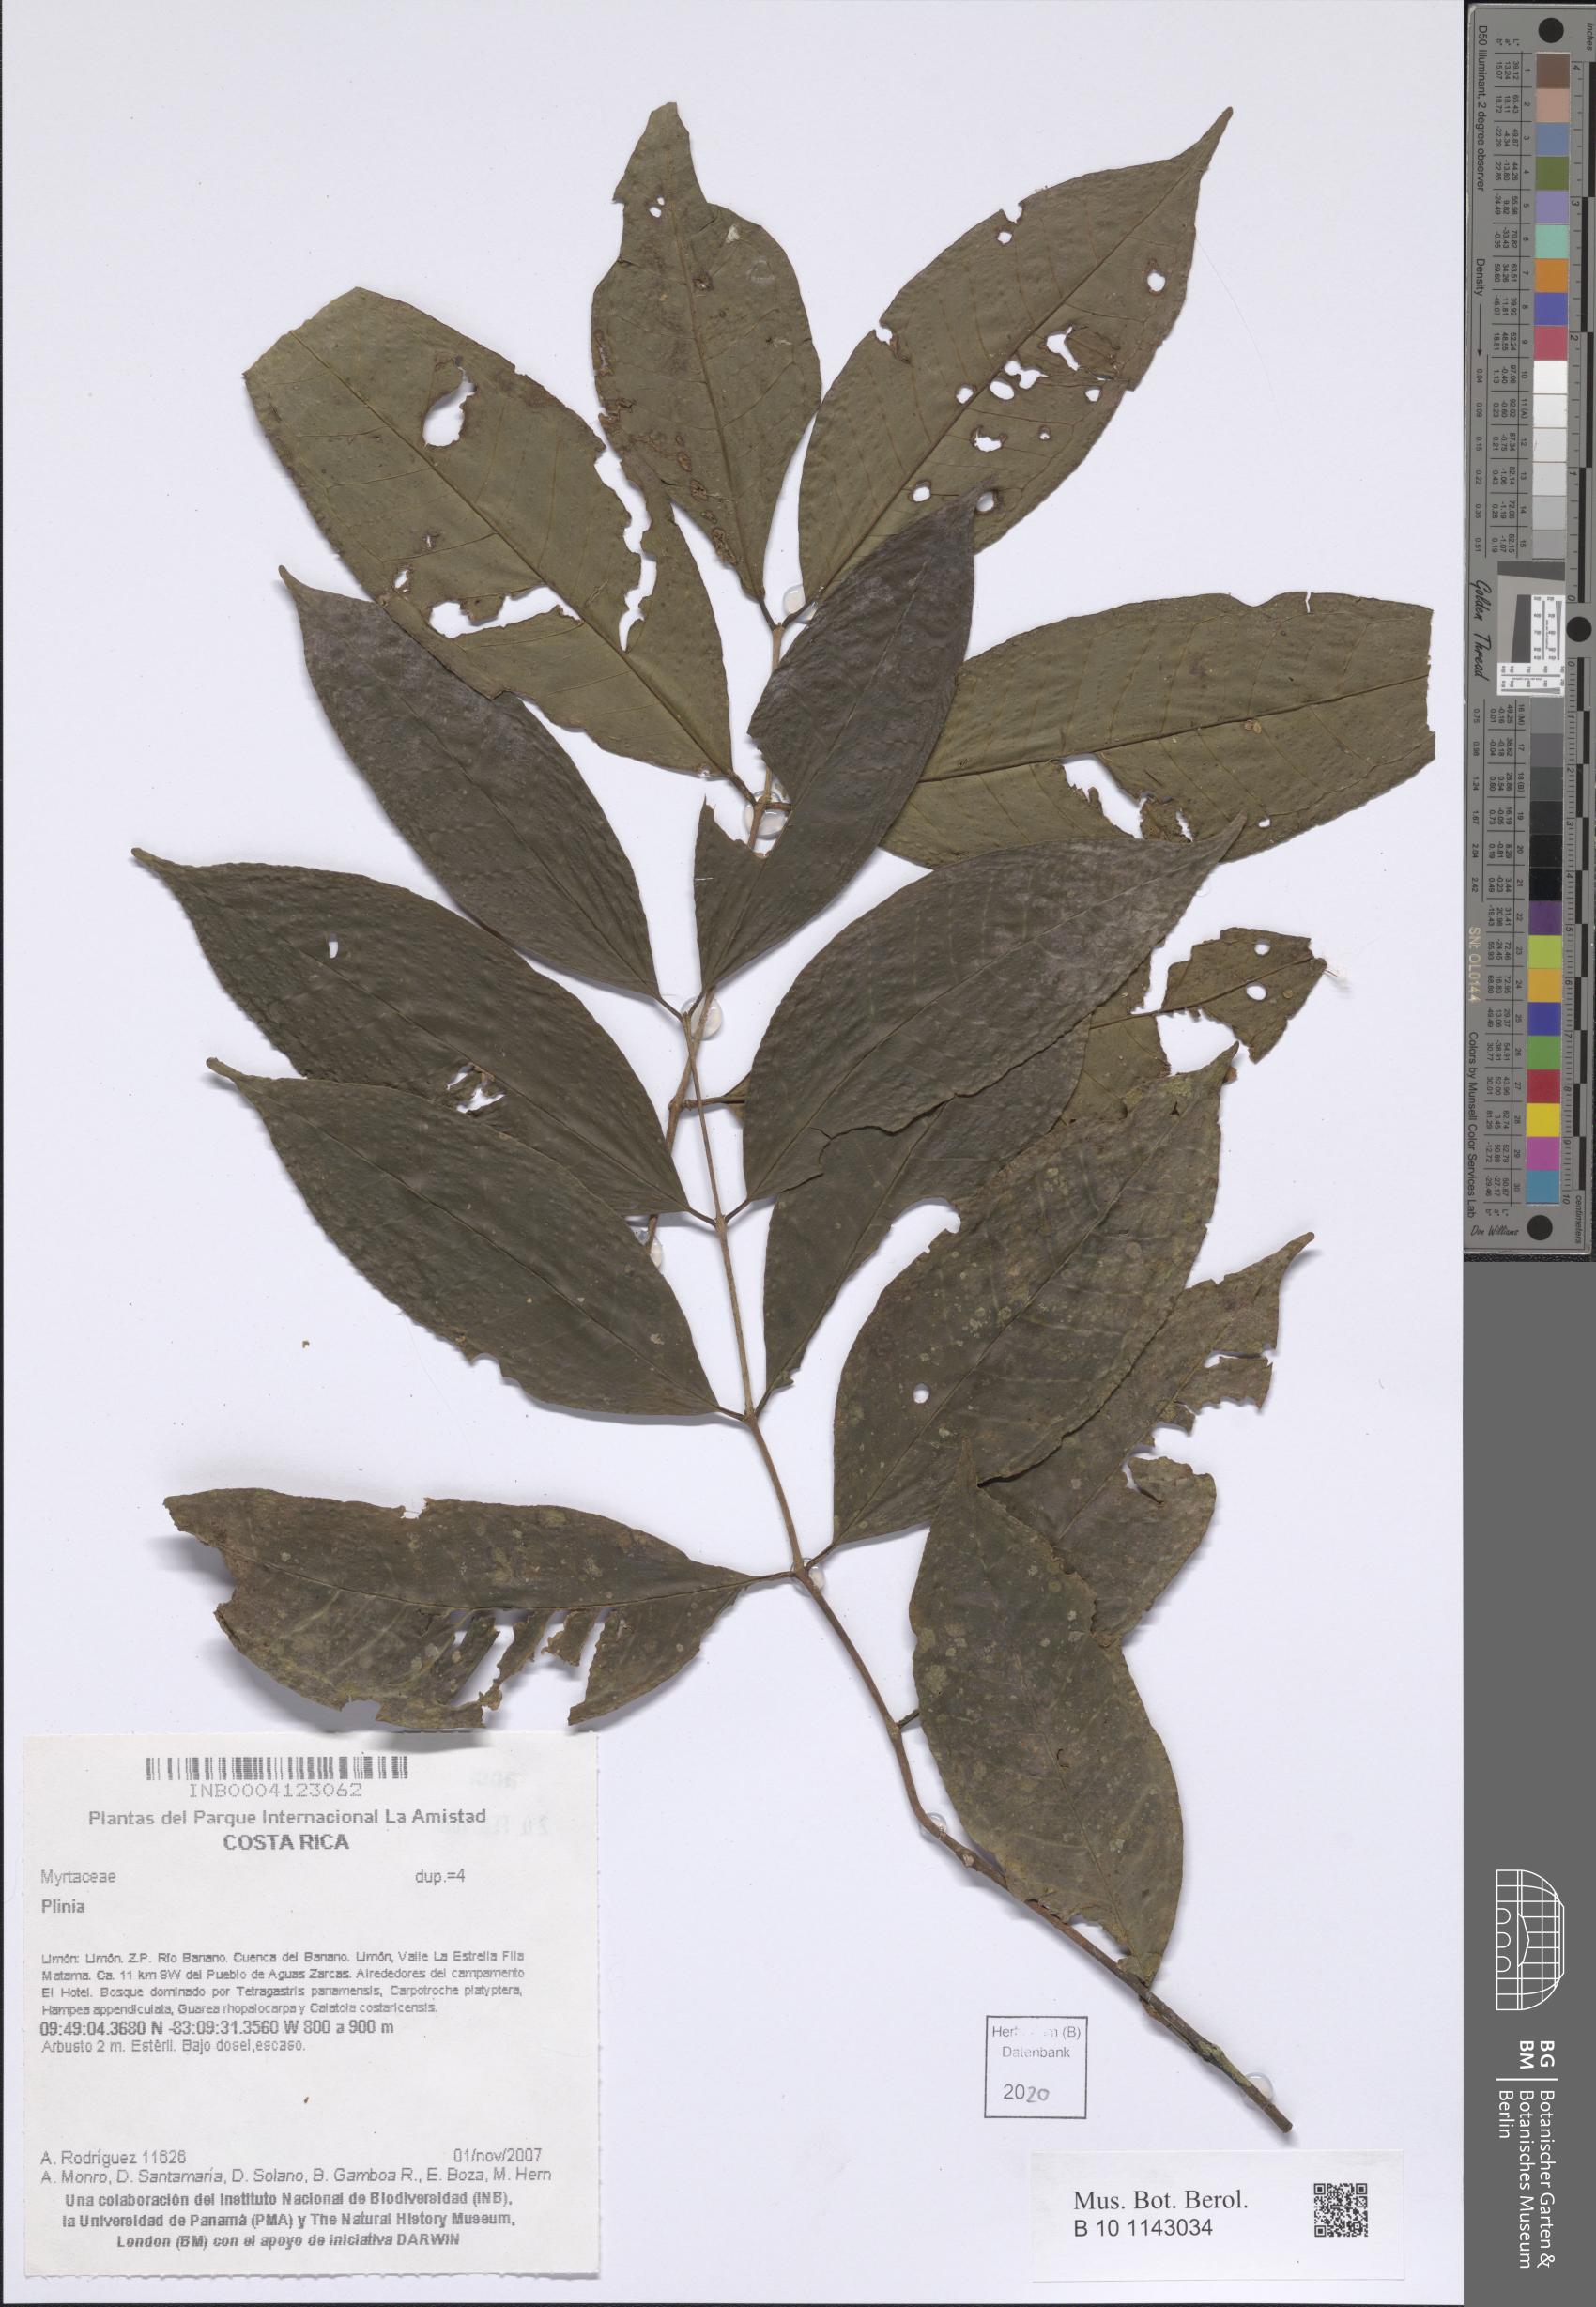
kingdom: Plantae
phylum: Tracheophyta
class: Magnoliopsida
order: Myrtales
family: Myrtaceae
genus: Plinia
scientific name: Plinia
